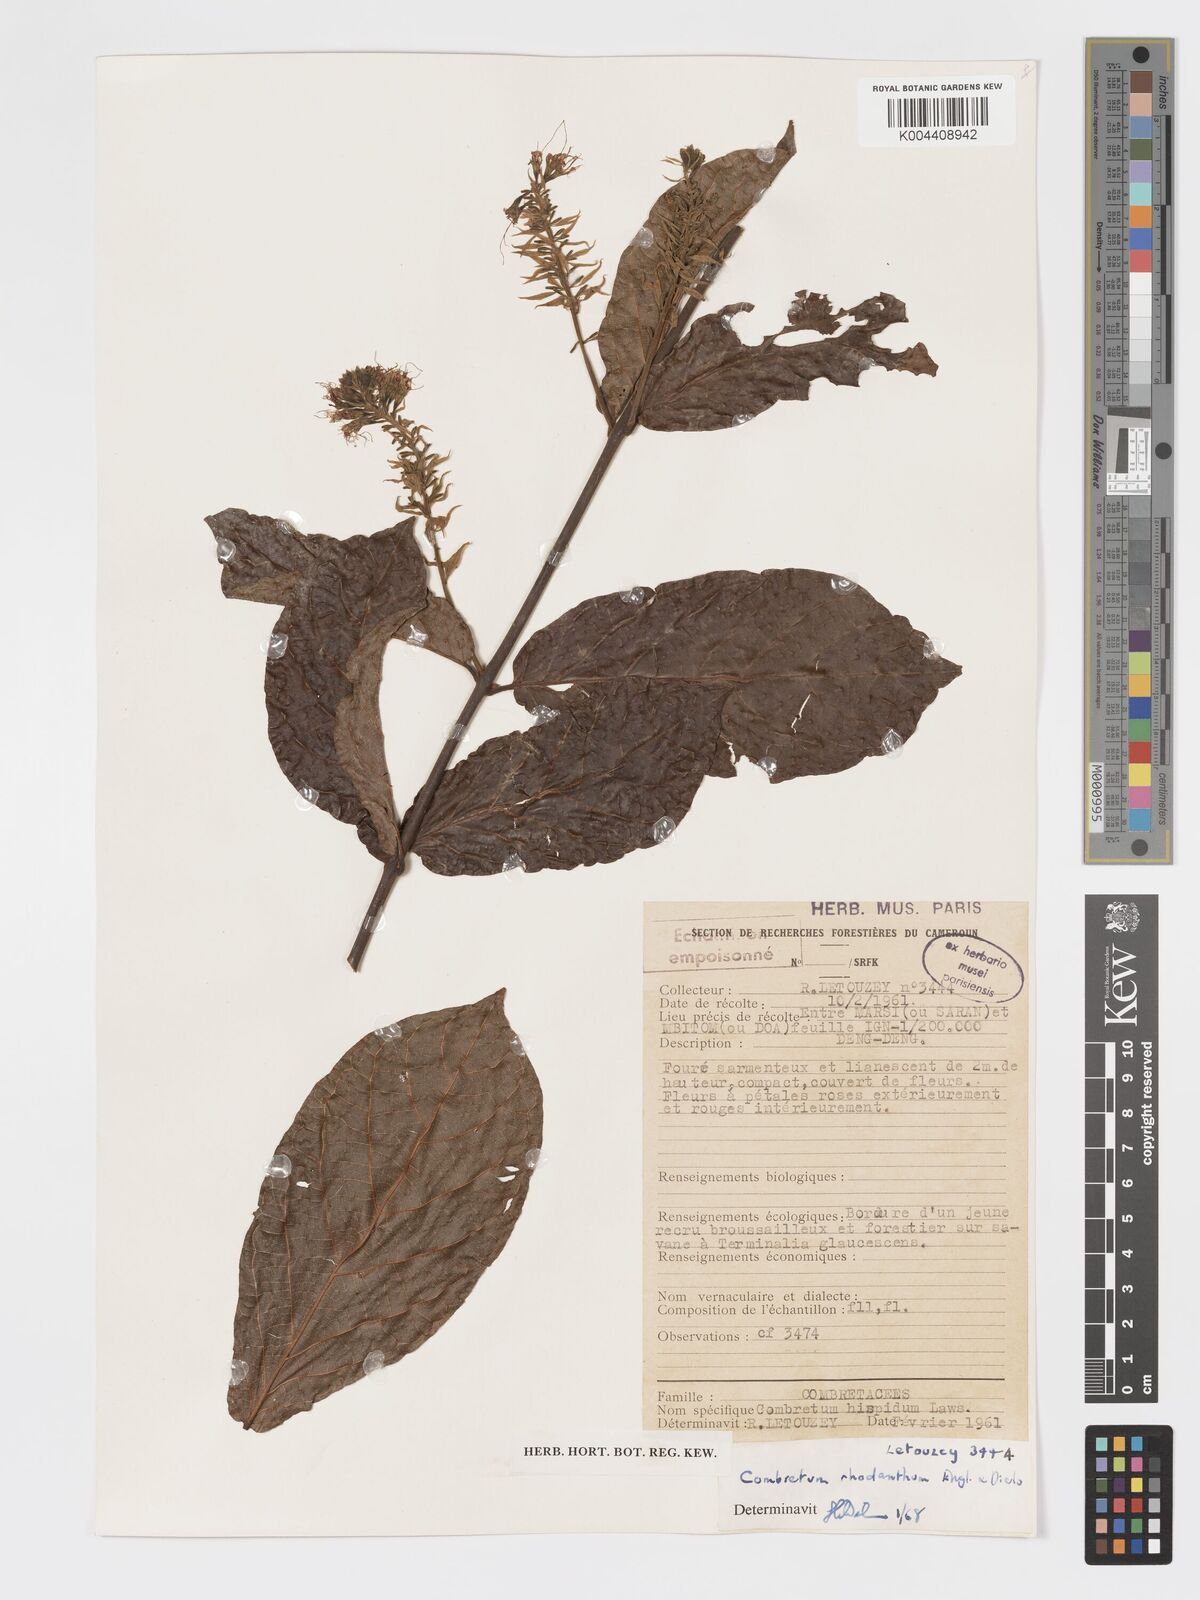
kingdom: Plantae
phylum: Tracheophyta
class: Magnoliopsida
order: Myrtales
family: Combretaceae
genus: Combretum
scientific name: Combretum comosum
